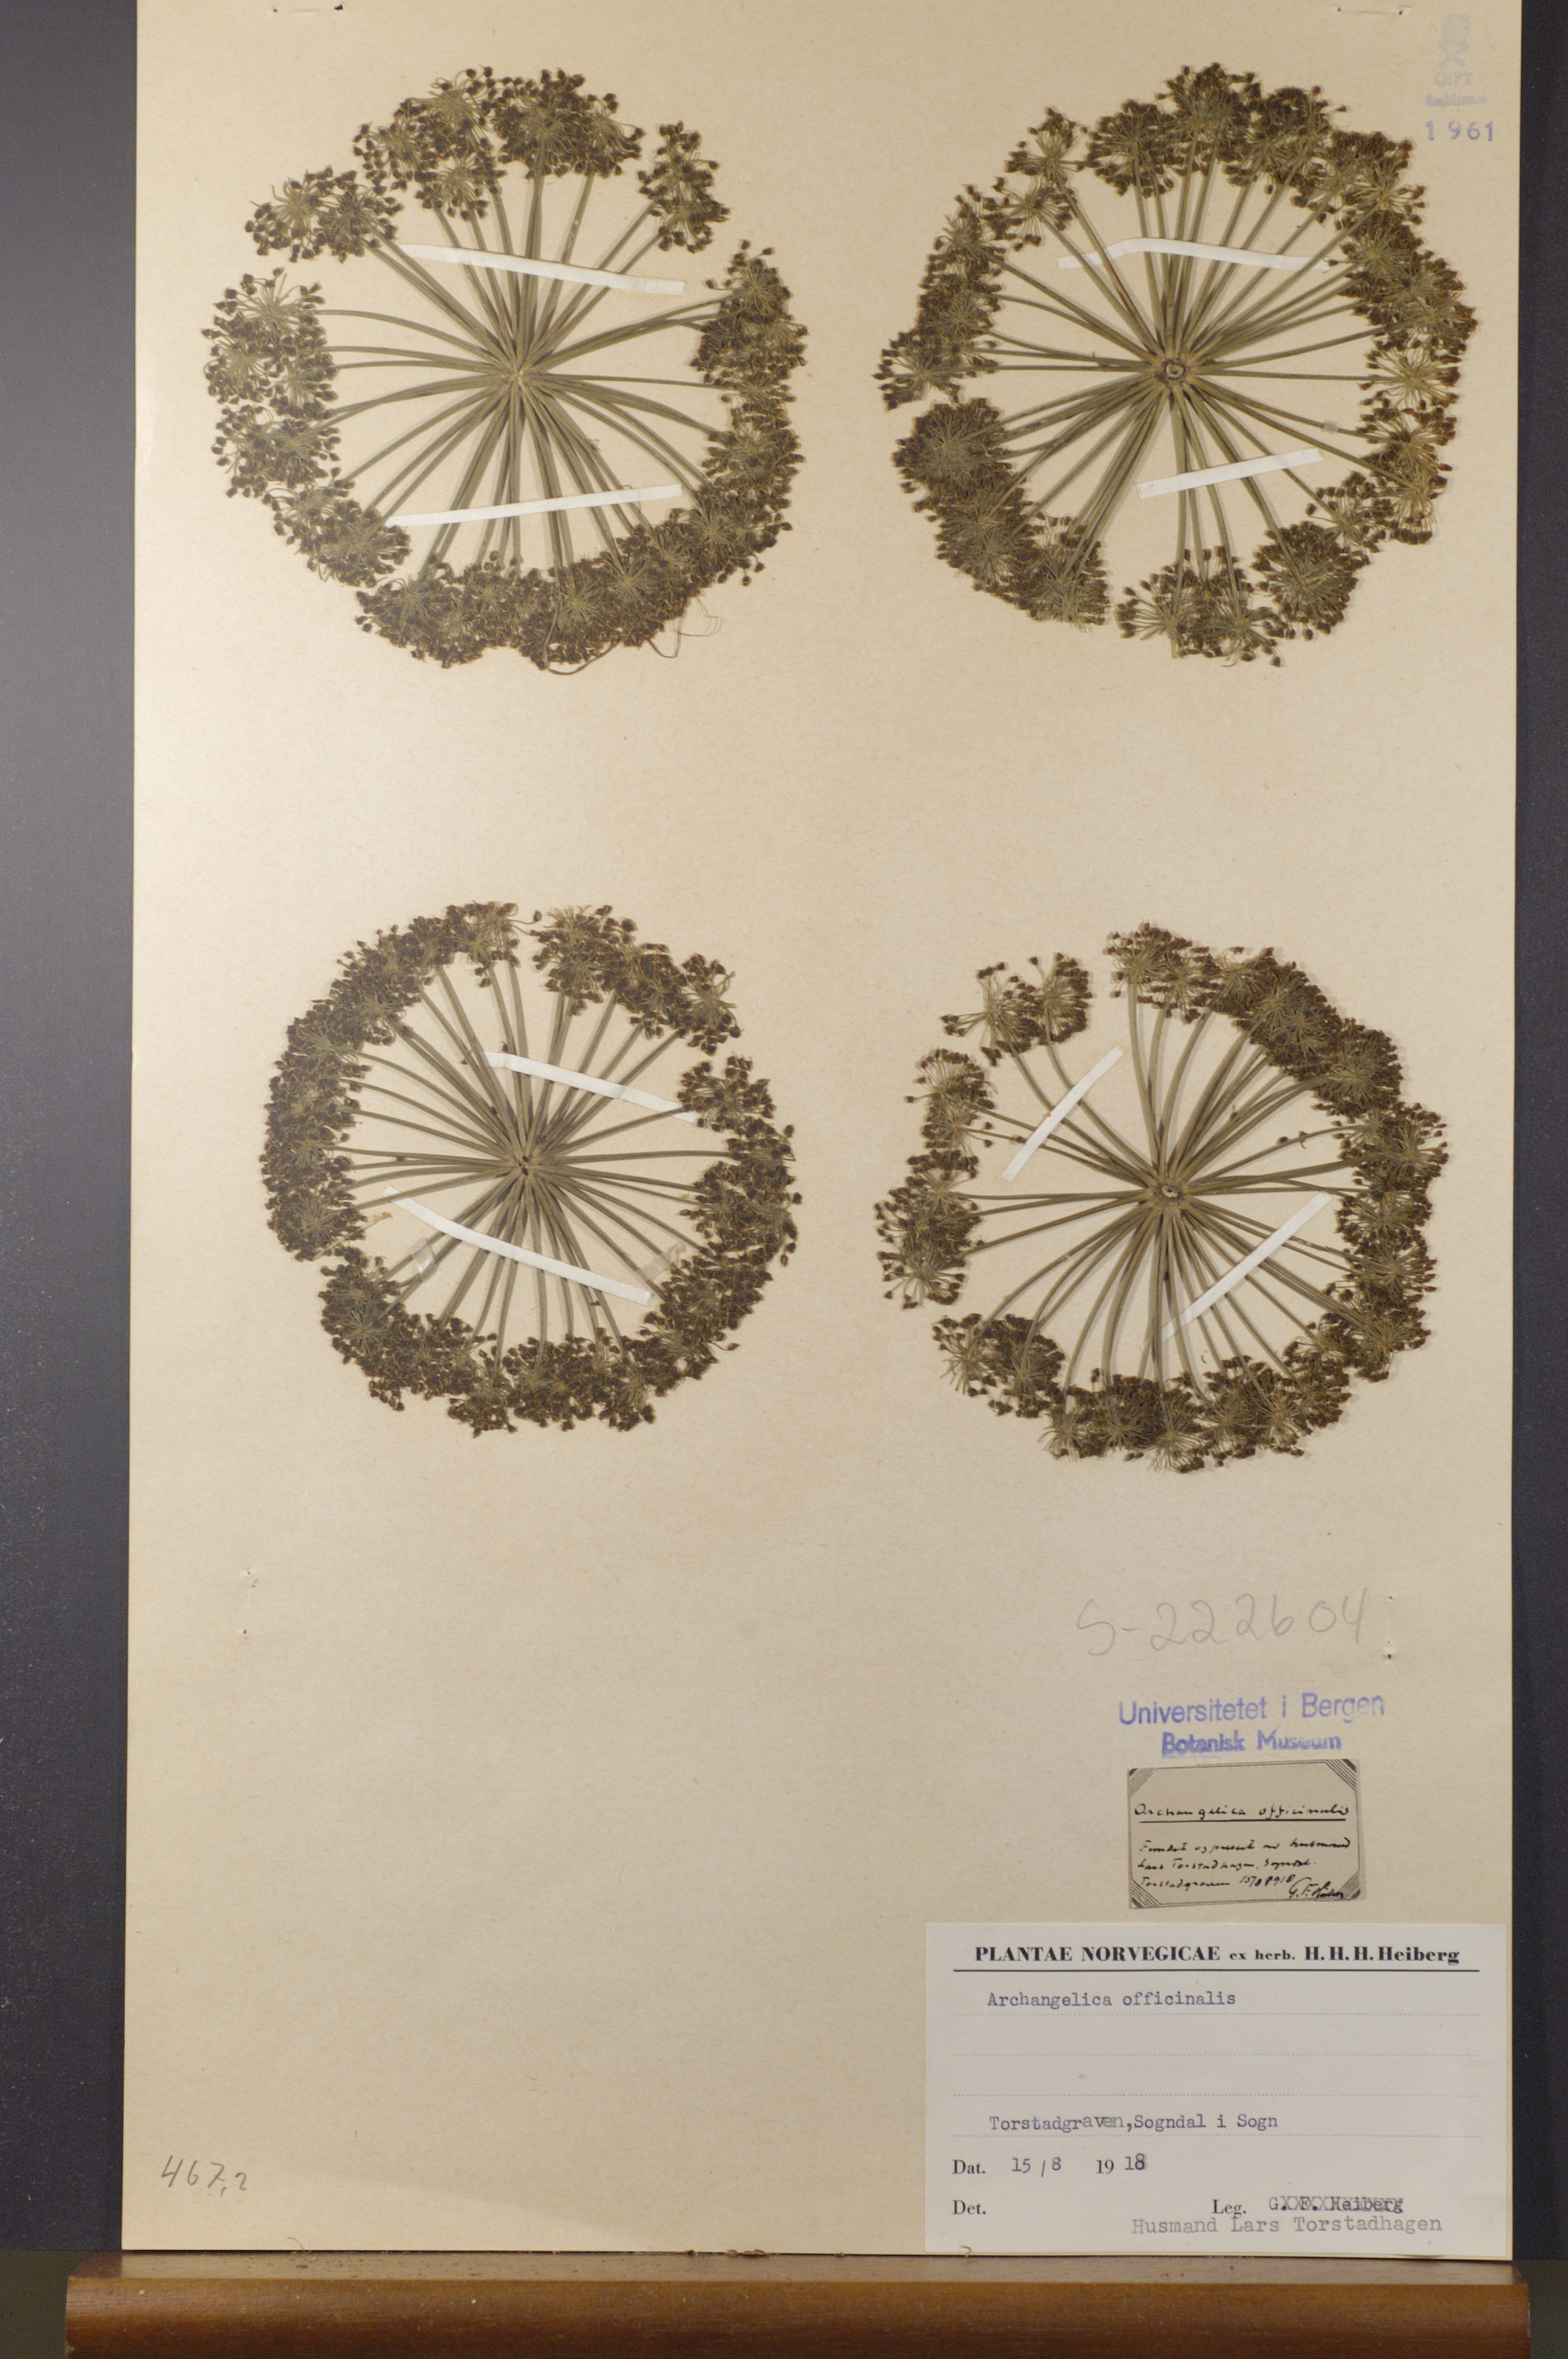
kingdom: Plantae
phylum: Tracheophyta
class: Magnoliopsida
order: Apiales
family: Apiaceae
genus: Angelica
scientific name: Angelica archangelica
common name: Garden angelica
